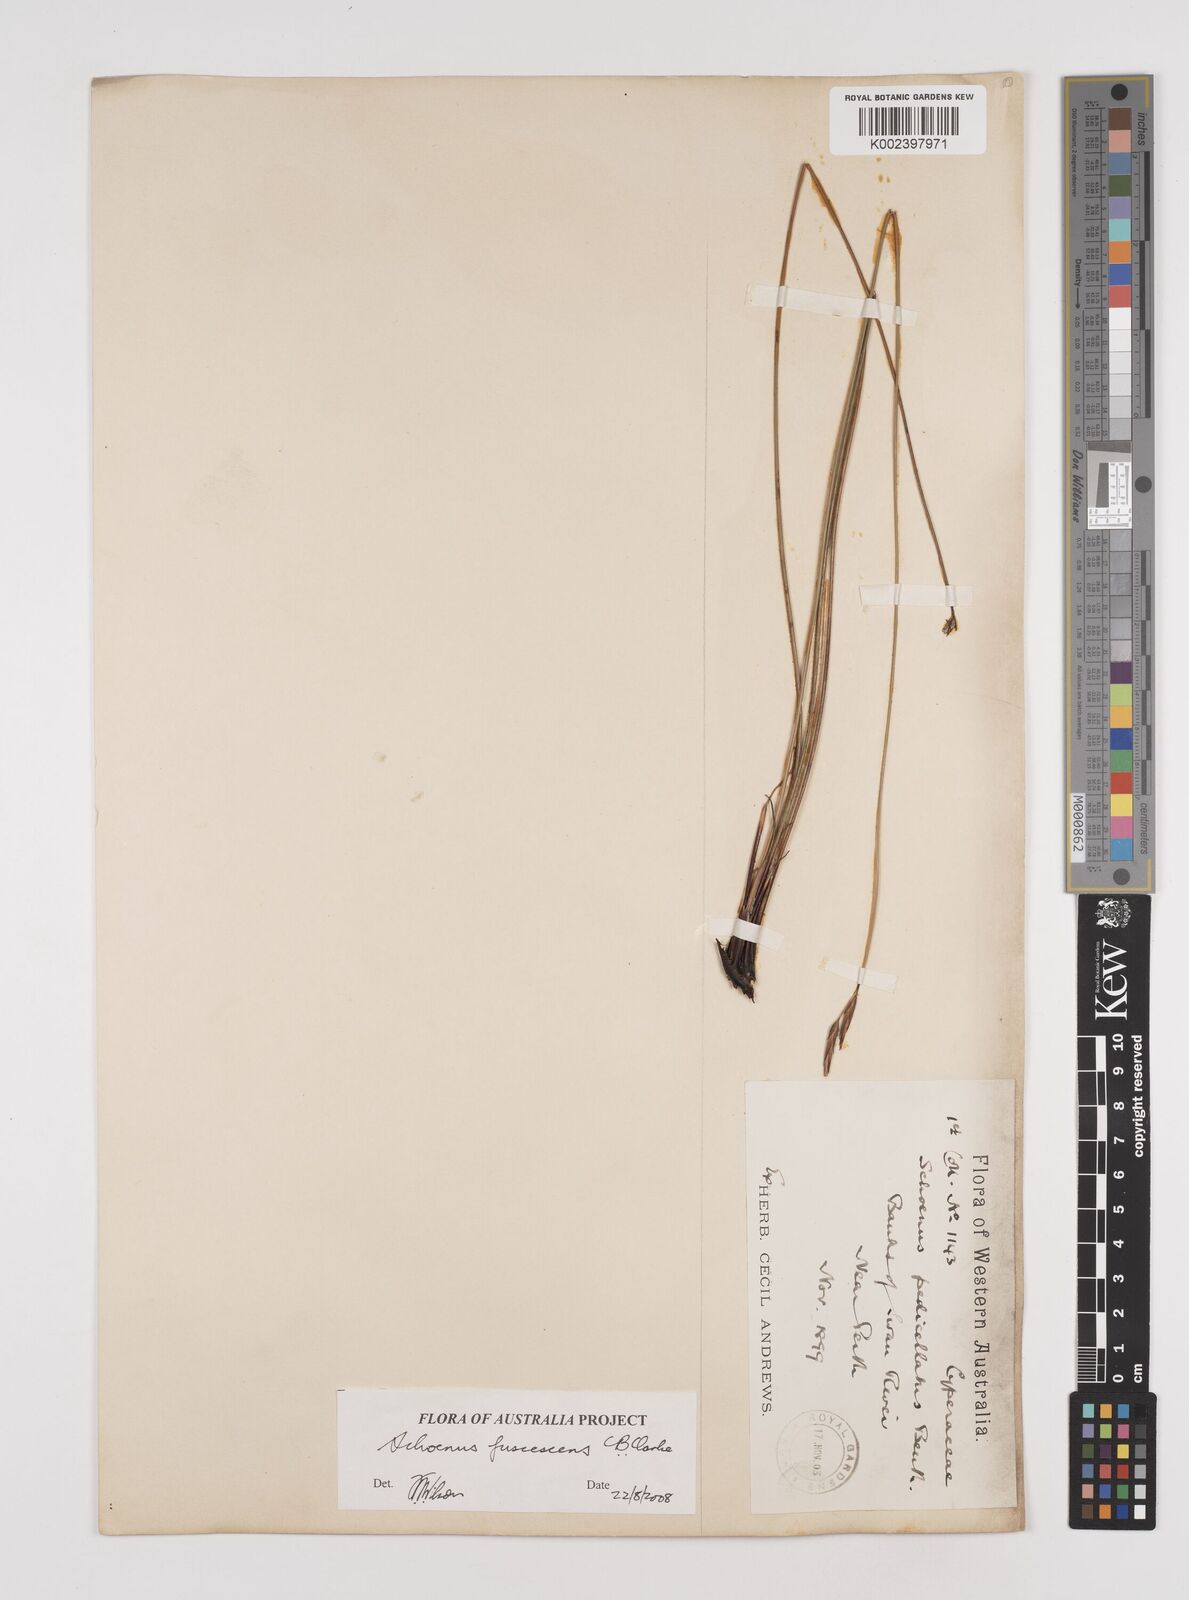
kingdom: Plantae
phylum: Tracheophyta
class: Liliopsida
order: Poales
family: Cyperaceae
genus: Schoenus
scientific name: Schoenus brevisetis
